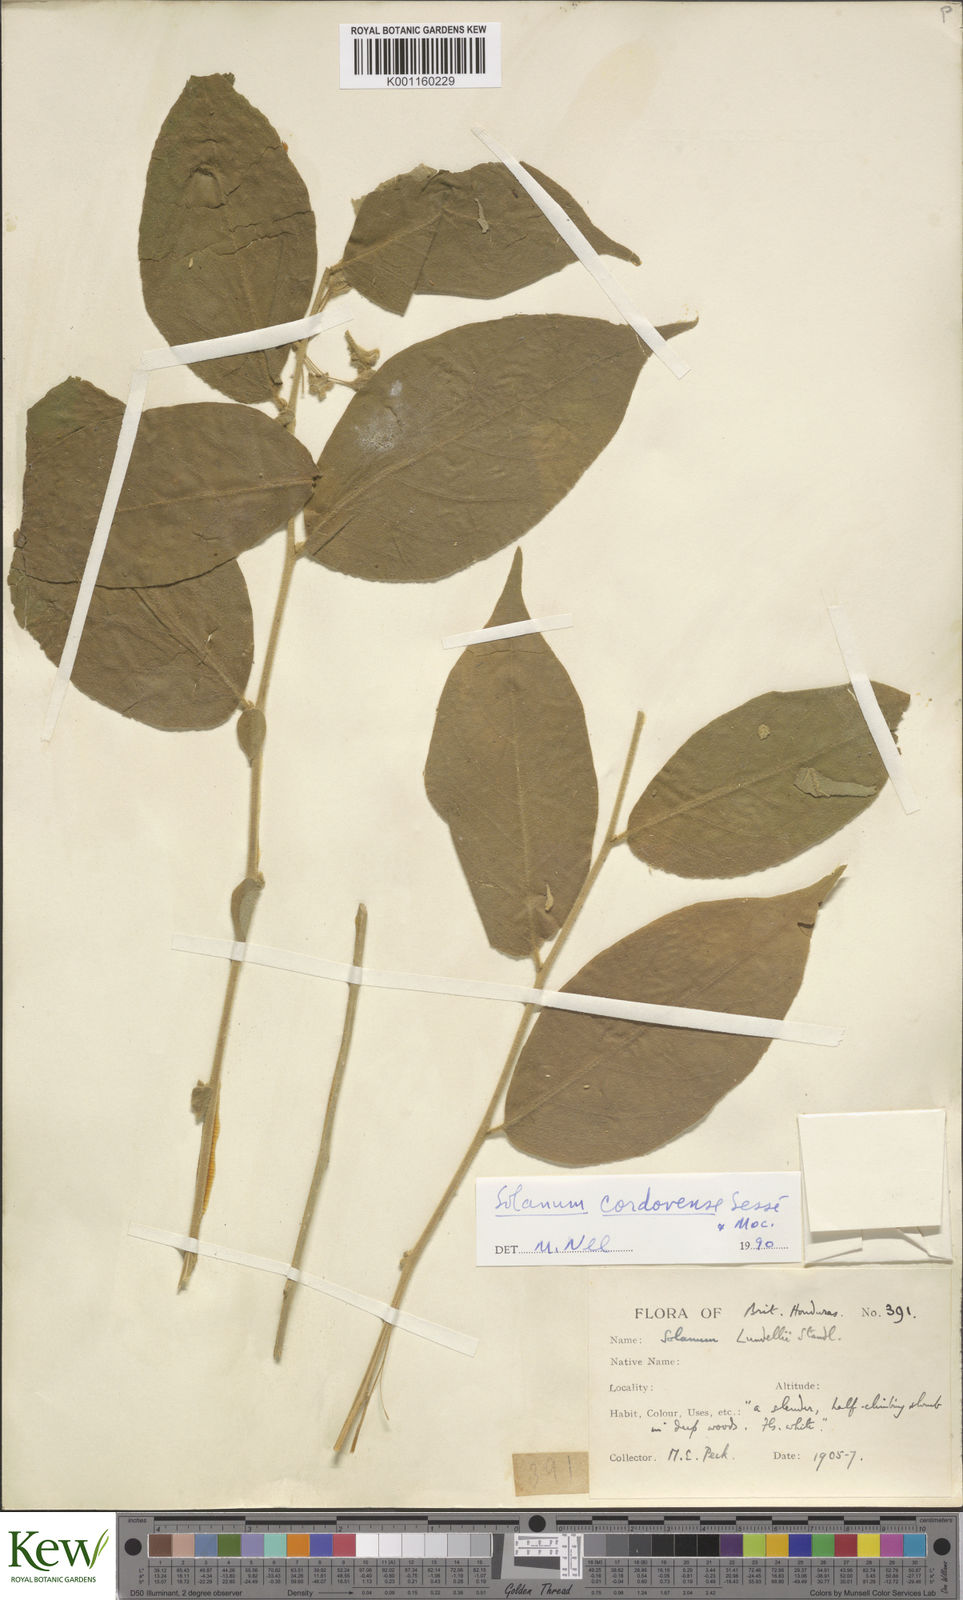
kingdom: Plantae
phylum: Tracheophyta
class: Magnoliopsida
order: Solanales
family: Solanaceae
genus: Solanum
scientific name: Solanum
